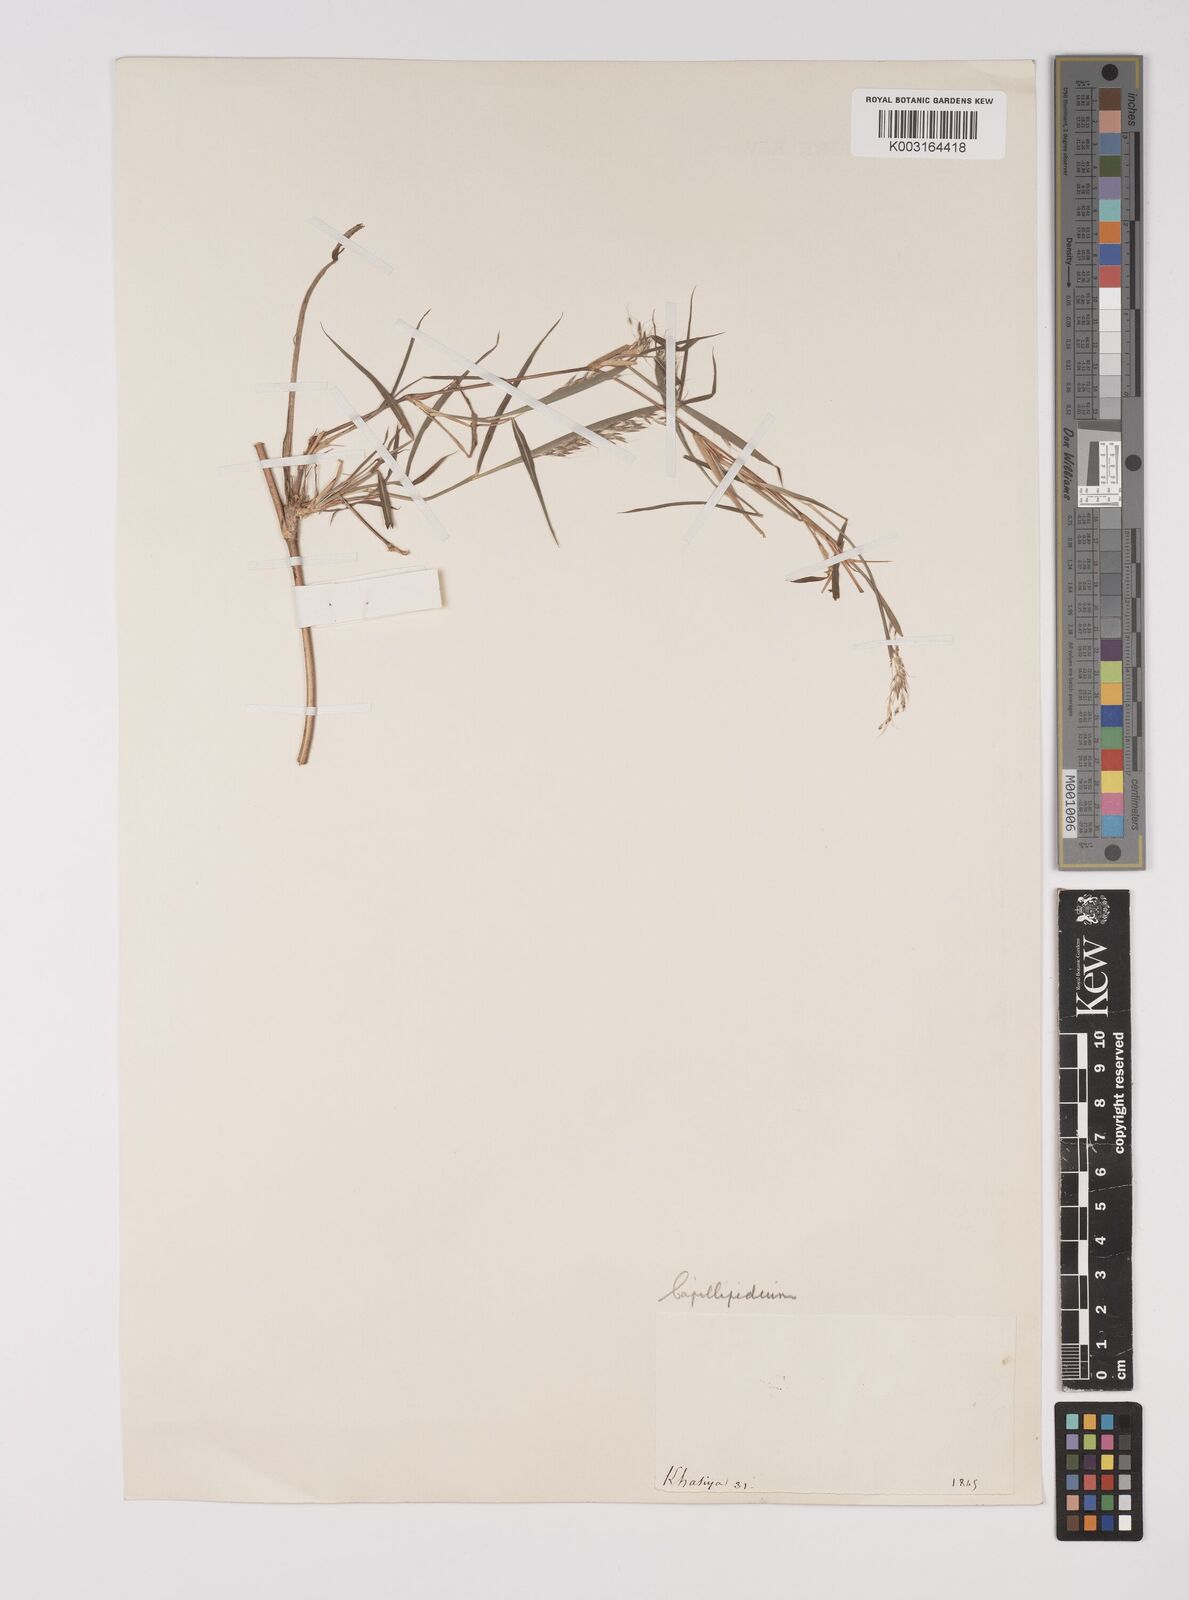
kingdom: Plantae
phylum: Tracheophyta
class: Liliopsida
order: Poales
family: Poaceae
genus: Capillipedium
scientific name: Capillipedium assimile
